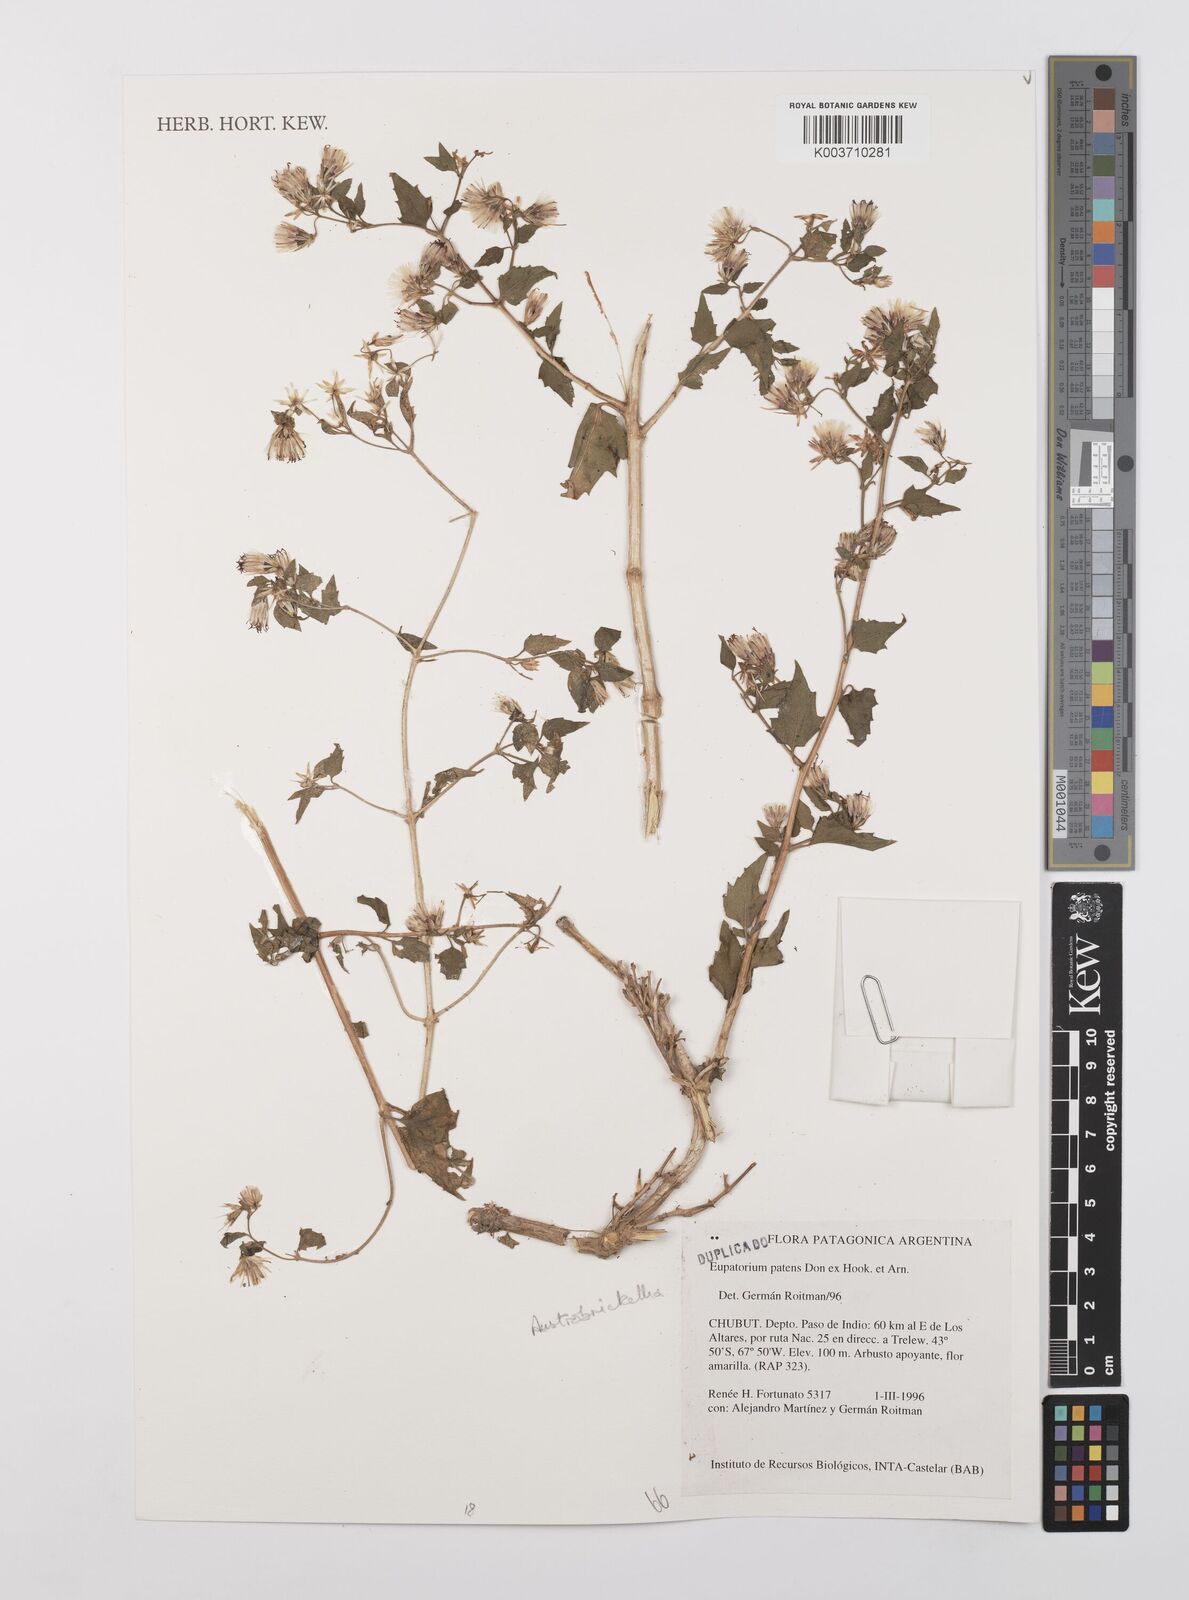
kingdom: Plantae
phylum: Tracheophyta
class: Magnoliopsida
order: Asterales
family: Asteraceae
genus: Austrobrickellia
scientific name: Austrobrickellia patens
